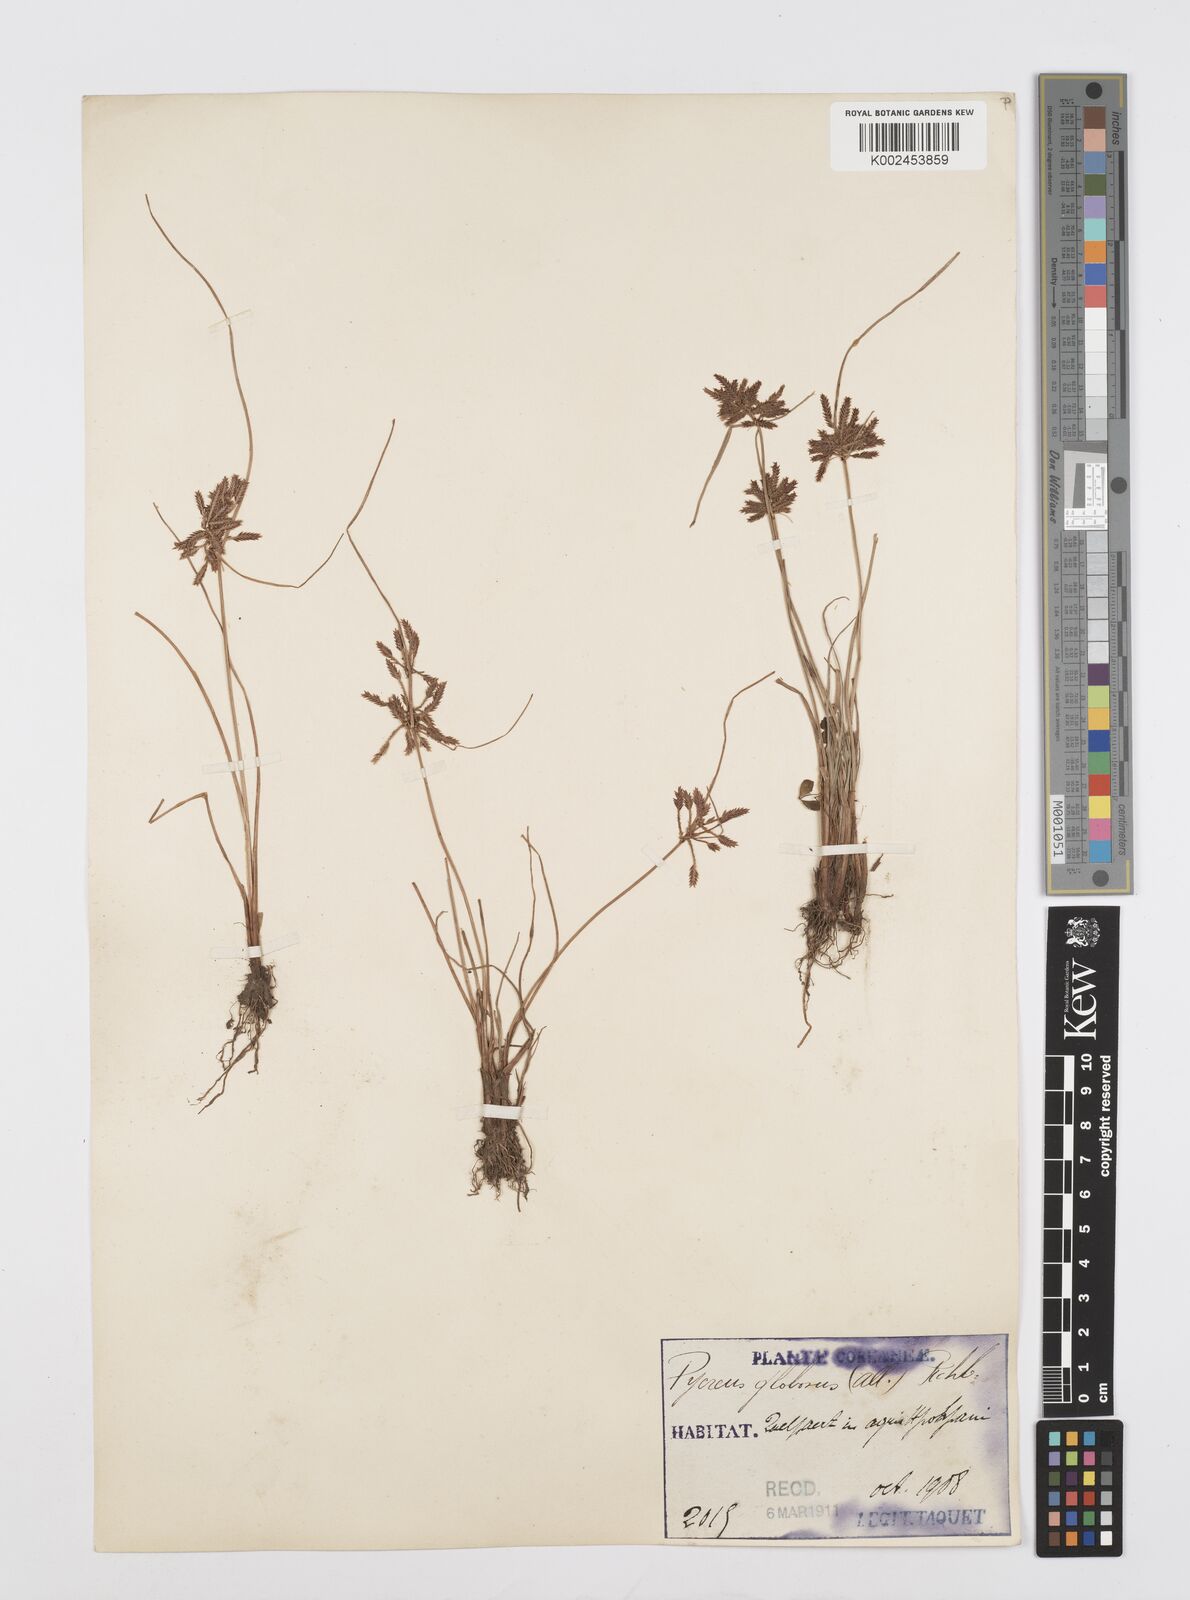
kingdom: Plantae
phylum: Tracheophyta
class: Liliopsida
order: Poales
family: Cyperaceae
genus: Cyperus
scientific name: Cyperus flavidus
